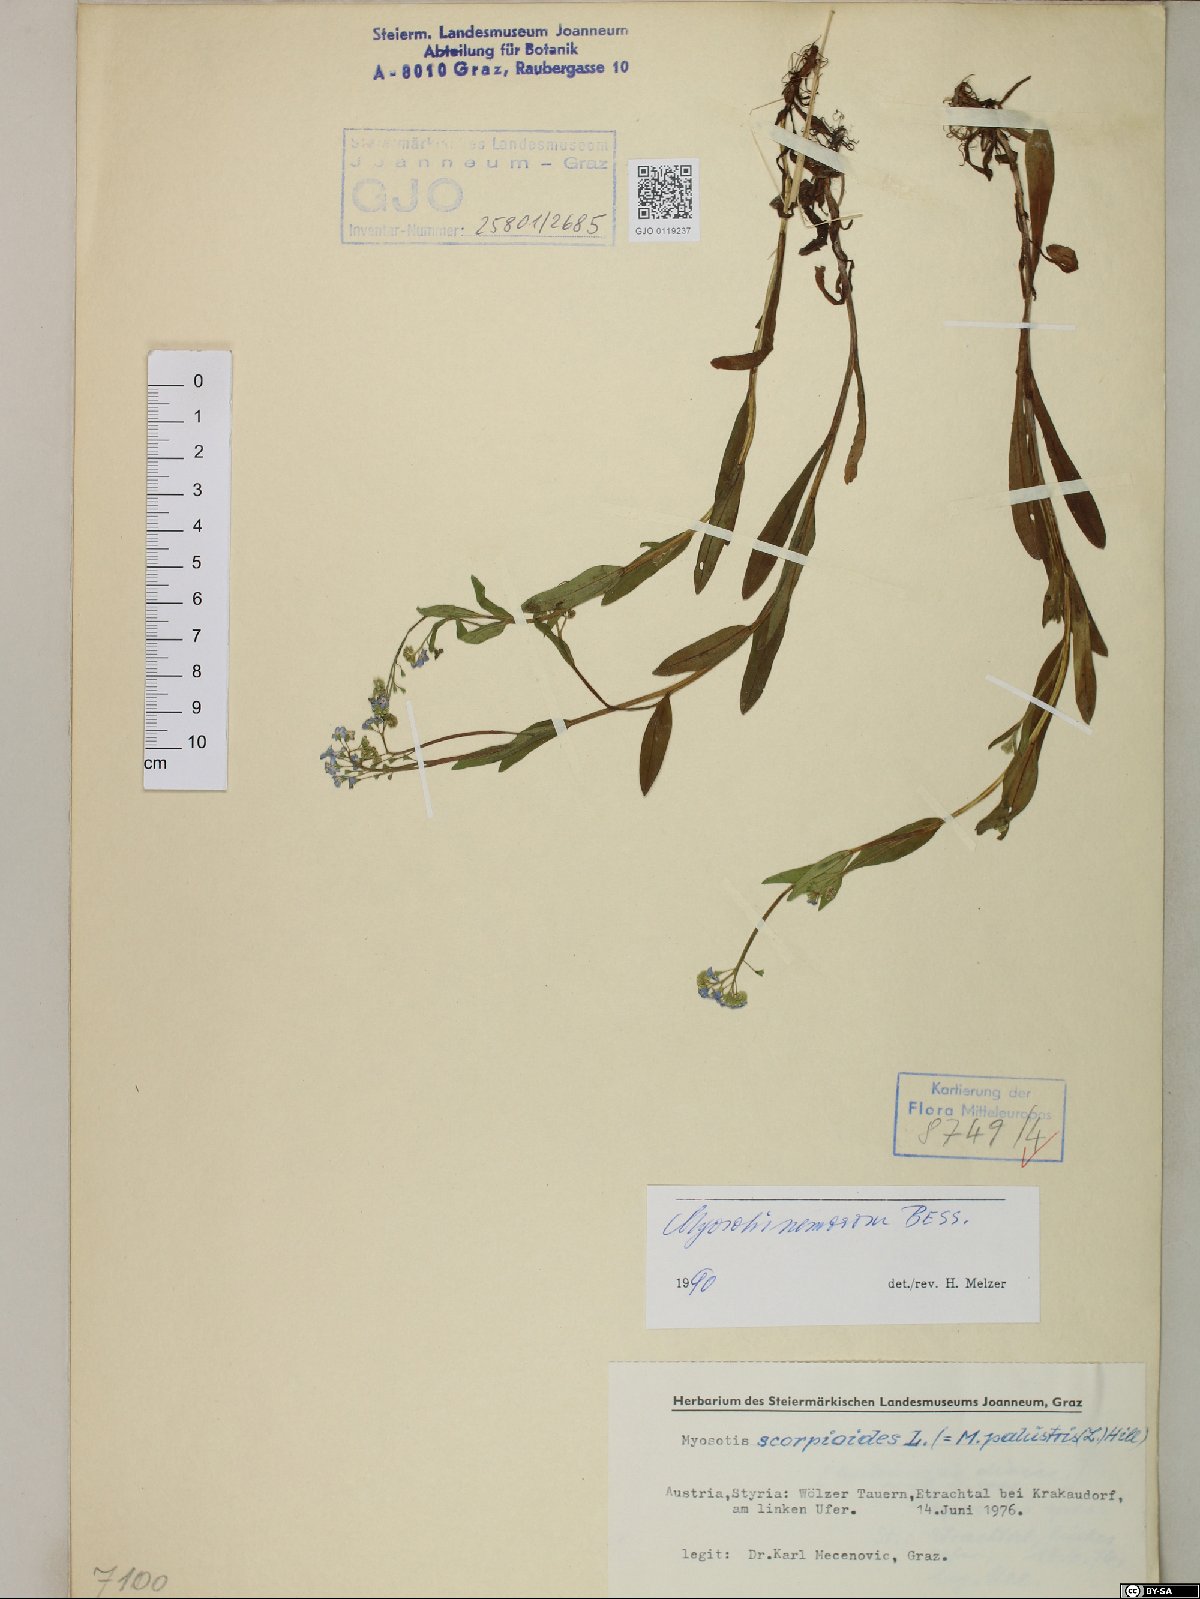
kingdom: Plantae
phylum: Tracheophyta
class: Magnoliopsida
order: Boraginales
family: Boraginaceae
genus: Myosotis
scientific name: Myosotis nemorosa
